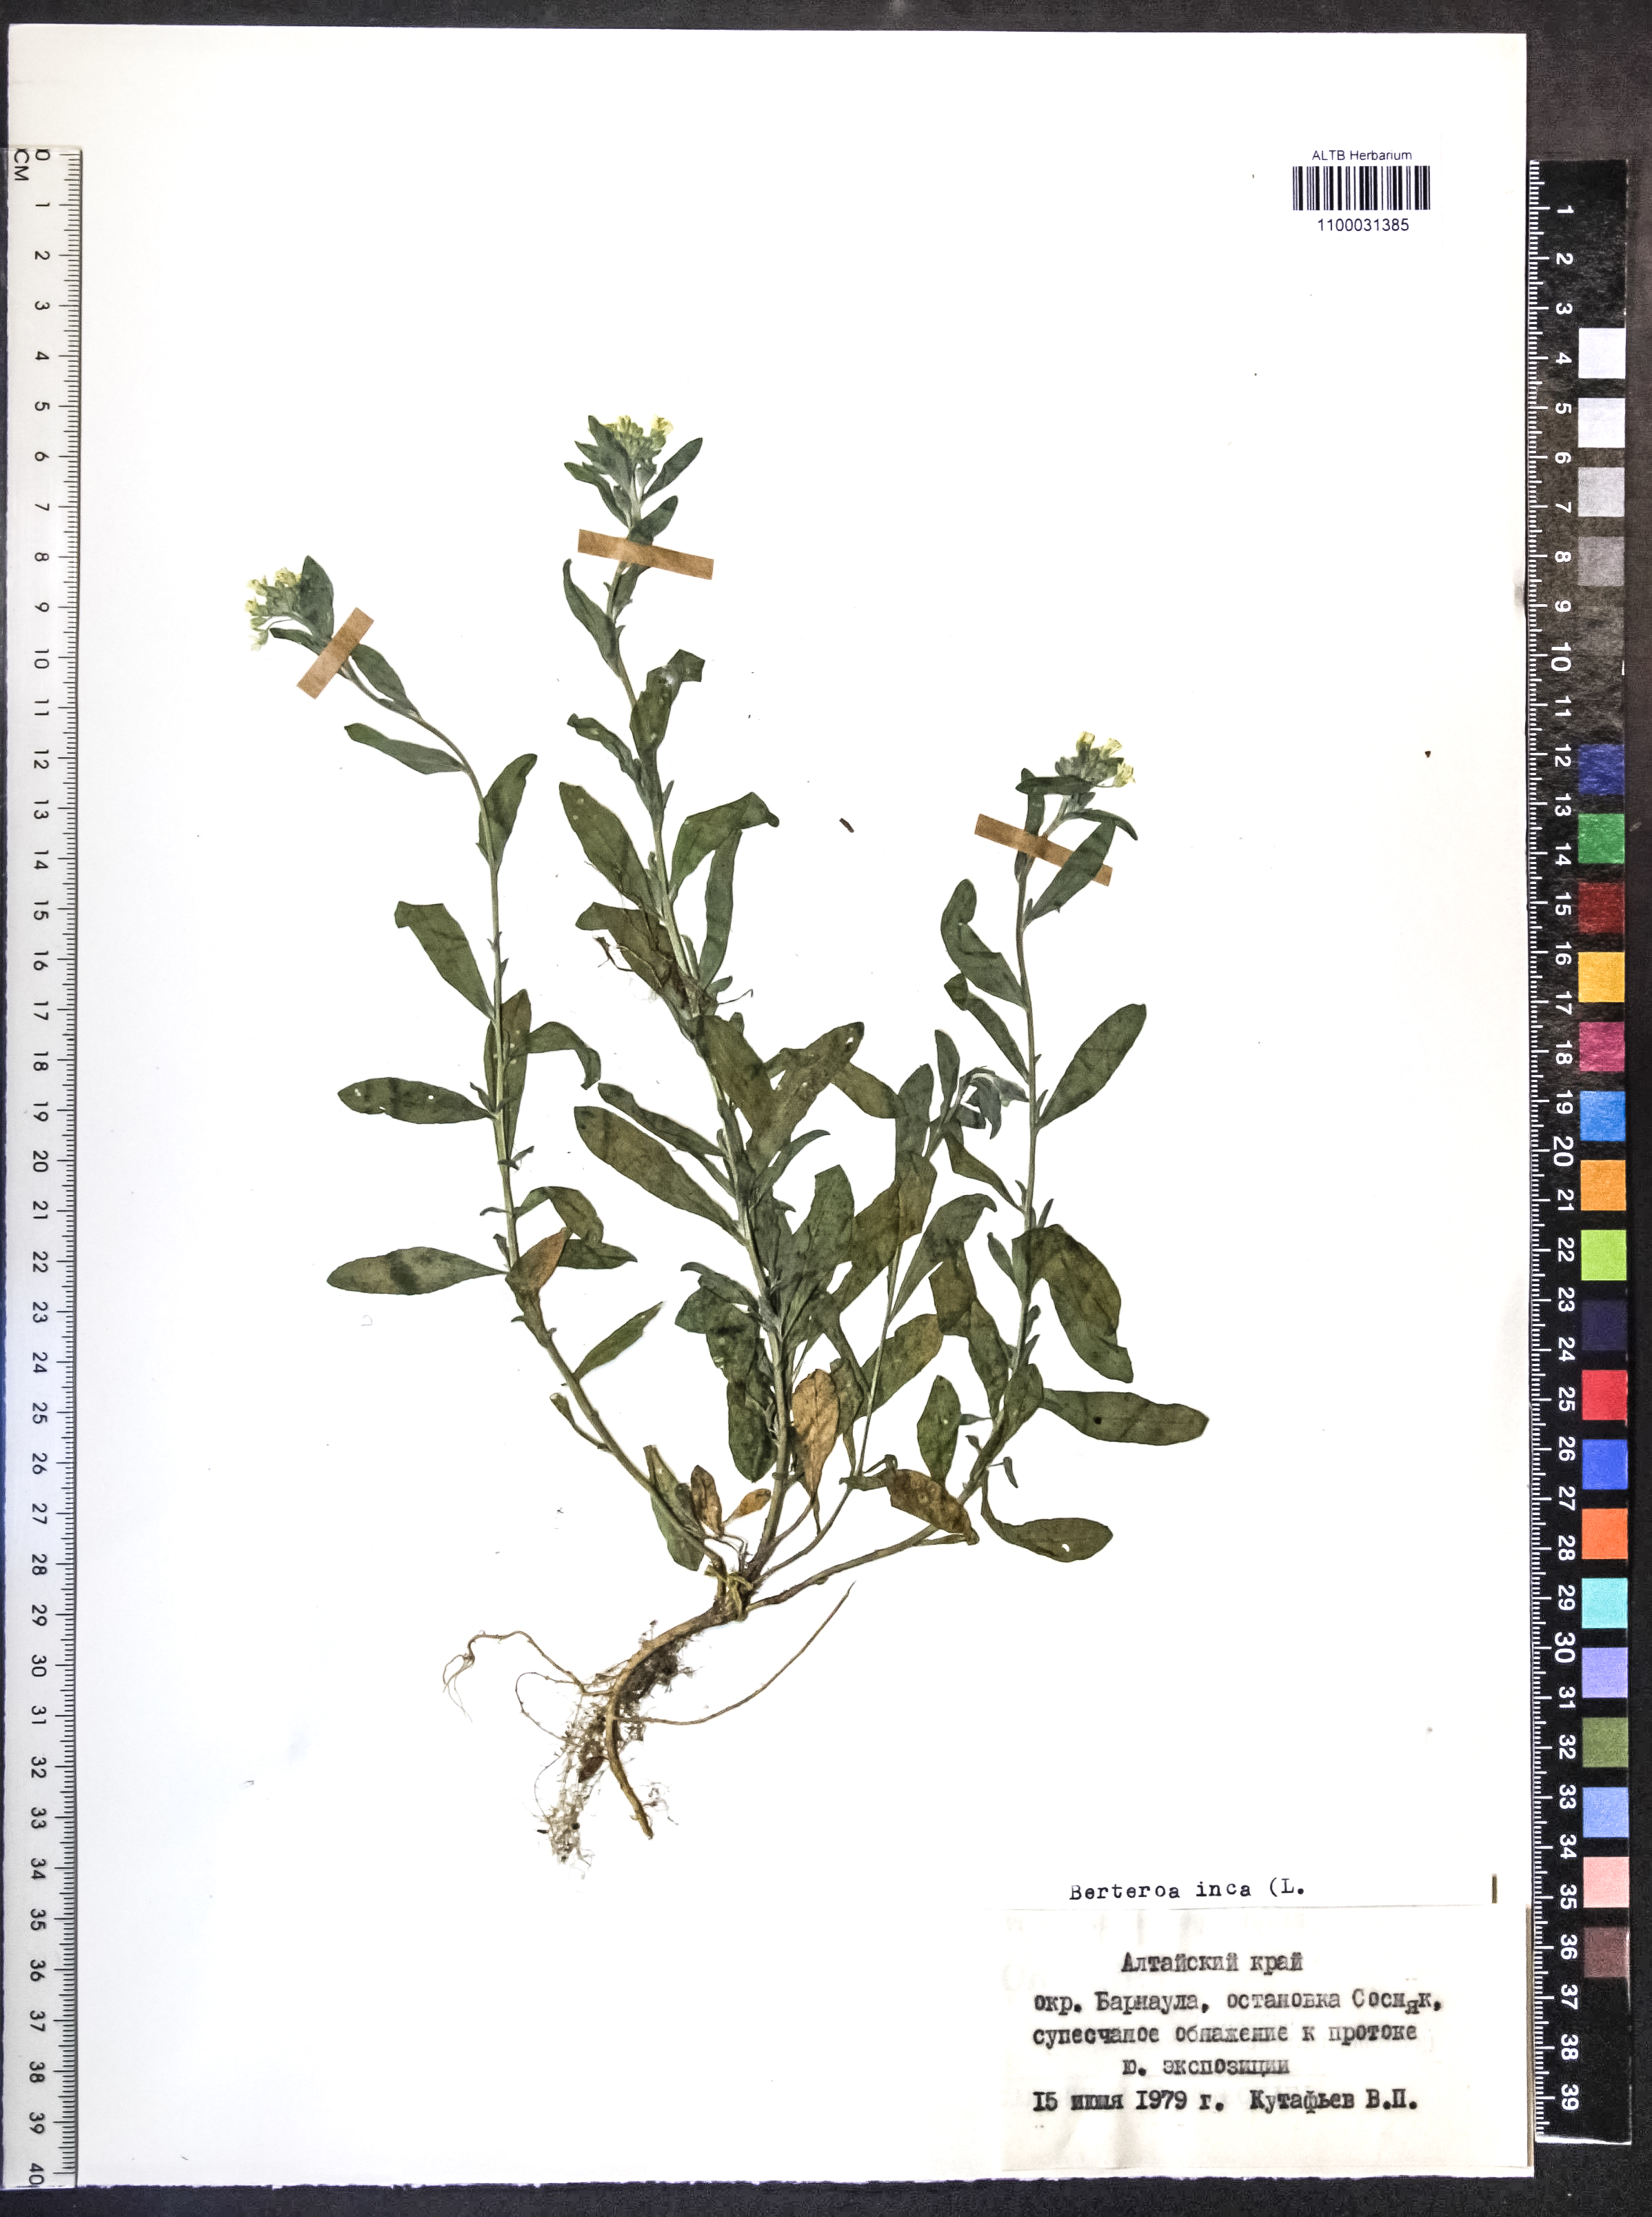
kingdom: Plantae
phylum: Tracheophyta
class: Magnoliopsida
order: Brassicales
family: Brassicaceae
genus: Berteroa
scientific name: Berteroa incana
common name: Hoary alison
